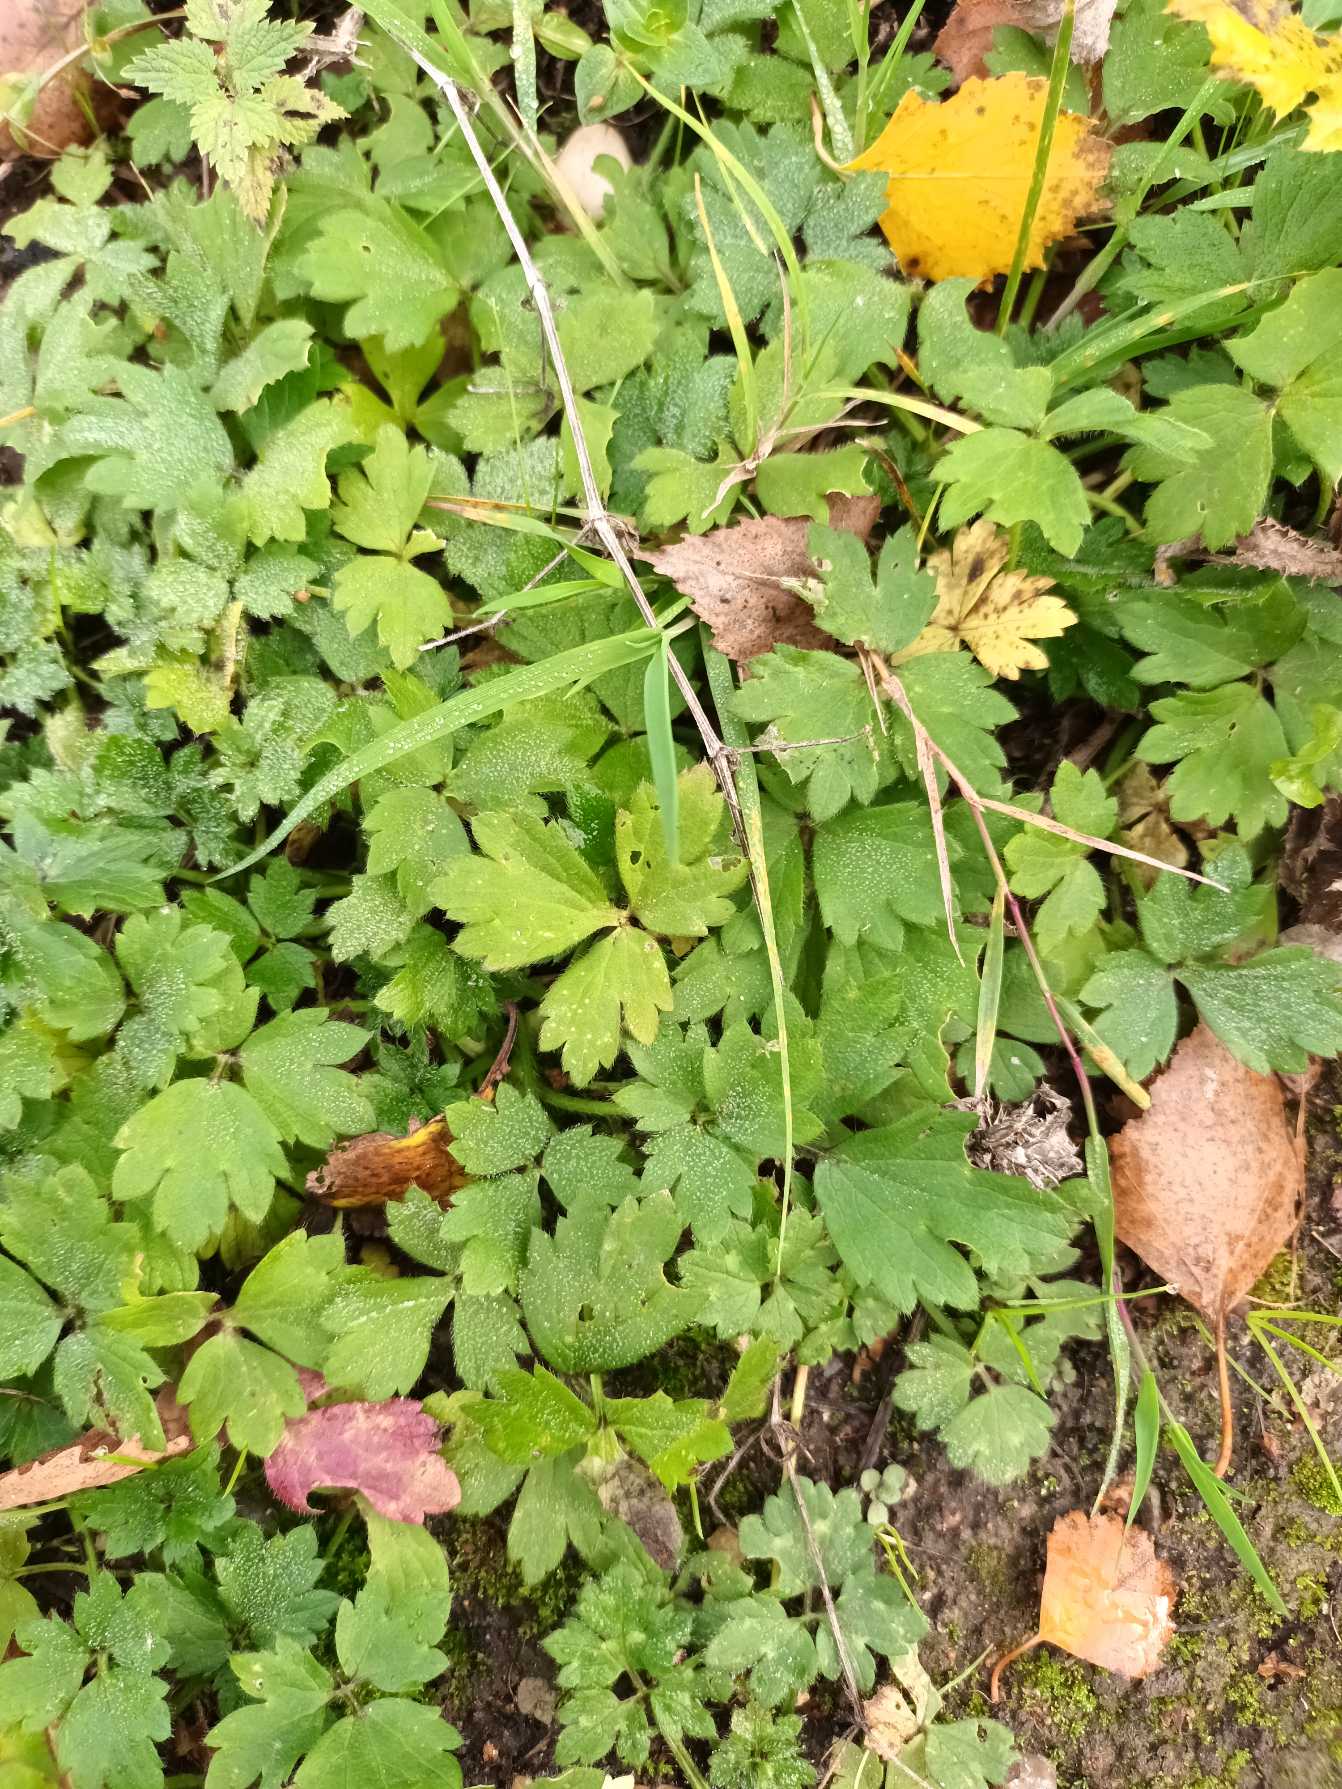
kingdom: Plantae
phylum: Tracheophyta
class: Magnoliopsida
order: Ranunculales
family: Ranunculaceae
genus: Ranunculus
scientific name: Ranunculus repens
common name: Lav ranunkel
